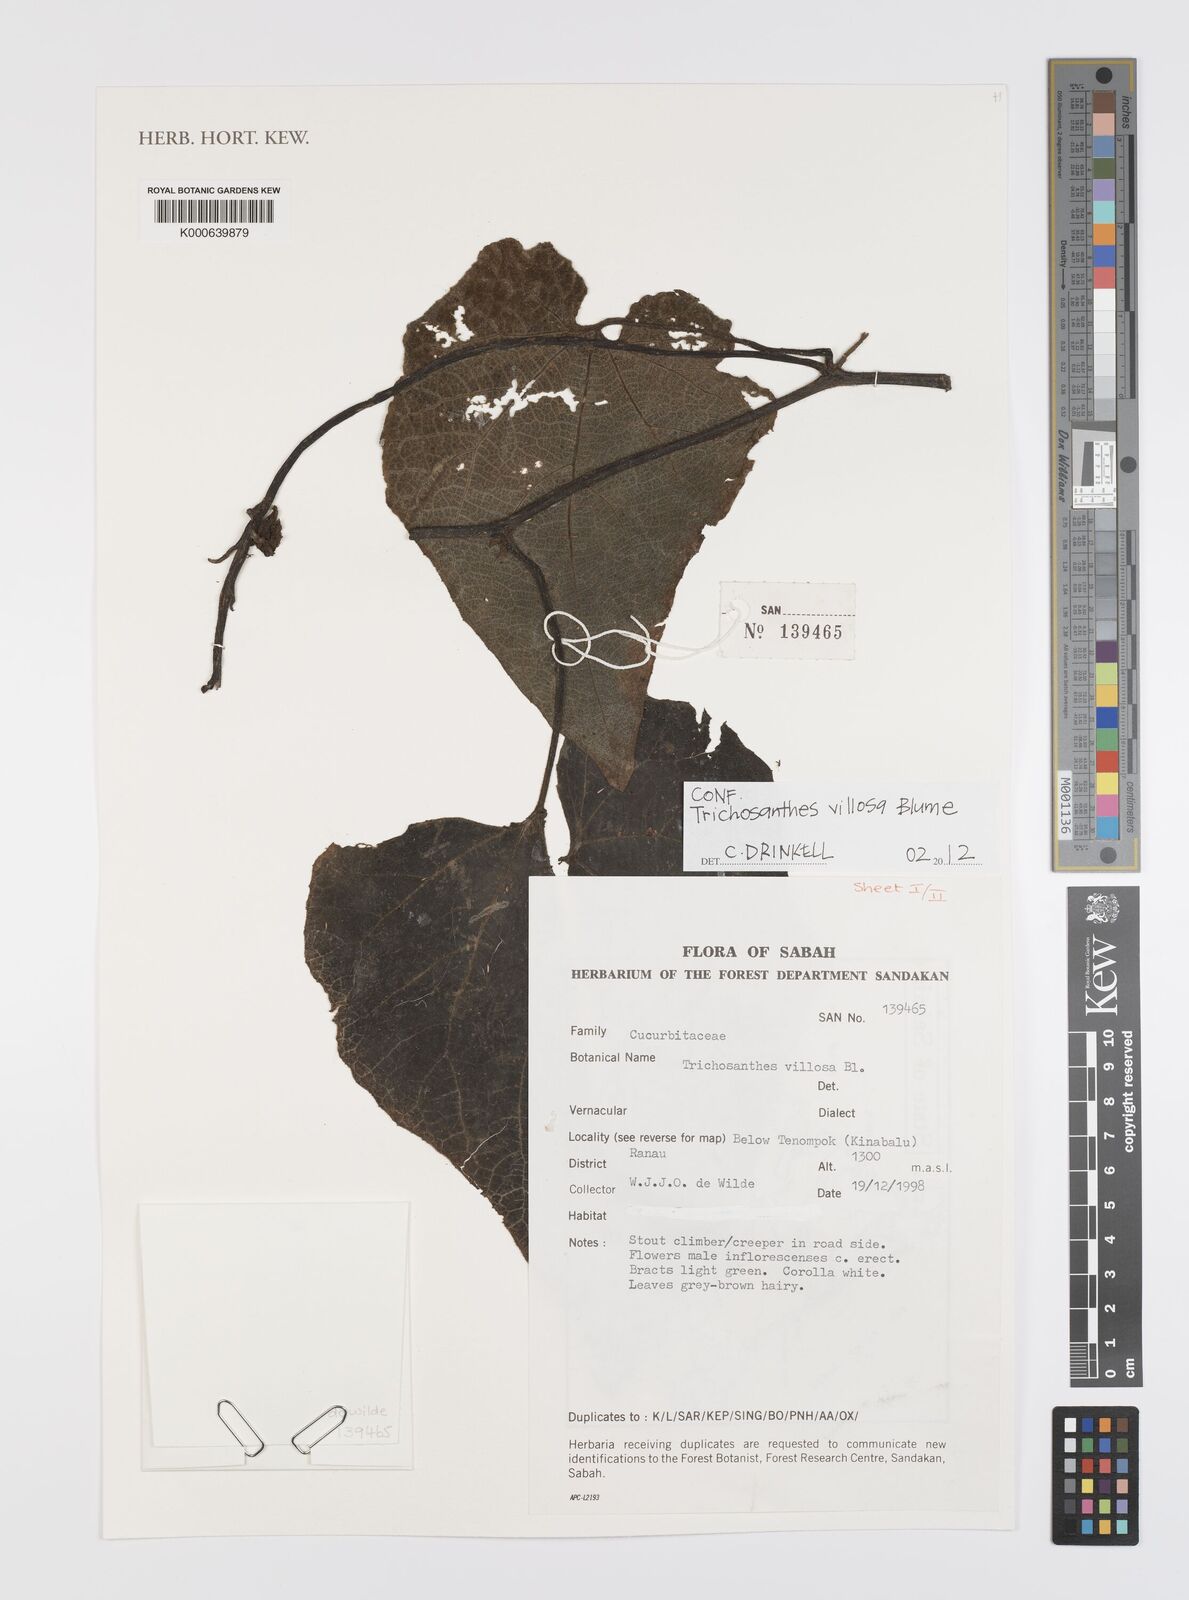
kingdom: Plantae
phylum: Tracheophyta
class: Magnoliopsida
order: Cucurbitales
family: Cucurbitaceae
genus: Trichosanthes
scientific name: Trichosanthes villosa
